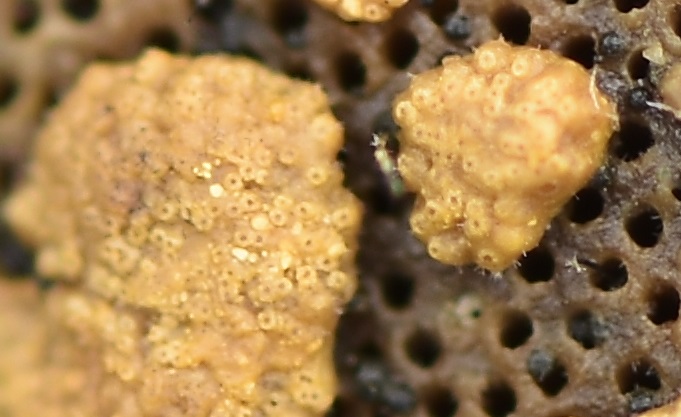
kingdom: Fungi
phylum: Ascomycota
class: Sordariomycetes
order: Hypocreales
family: Hypocreaceae
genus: Trichoderma
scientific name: Trichoderma protopulvinatum
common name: hovpore-kødkerne
